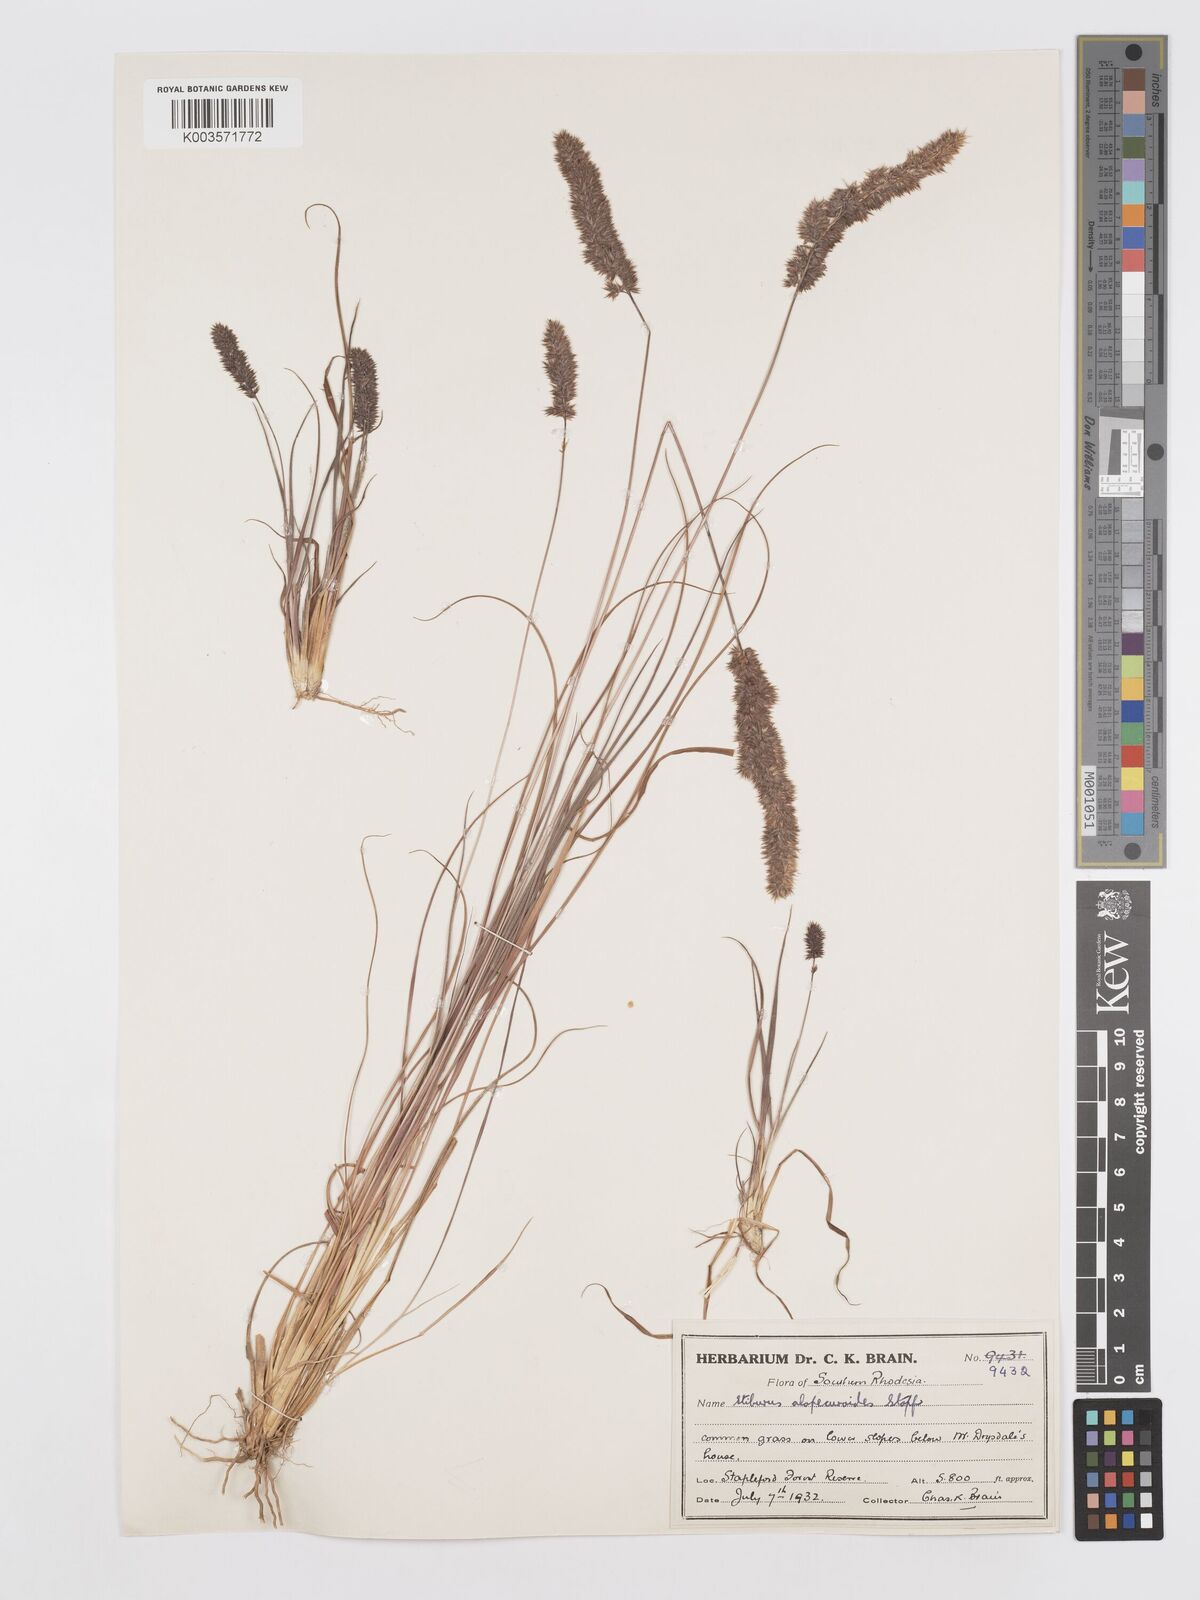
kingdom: Plantae
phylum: Tracheophyta
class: Liliopsida
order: Poales
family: Poaceae
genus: Stiburus
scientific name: Stiburus alopecuroides
